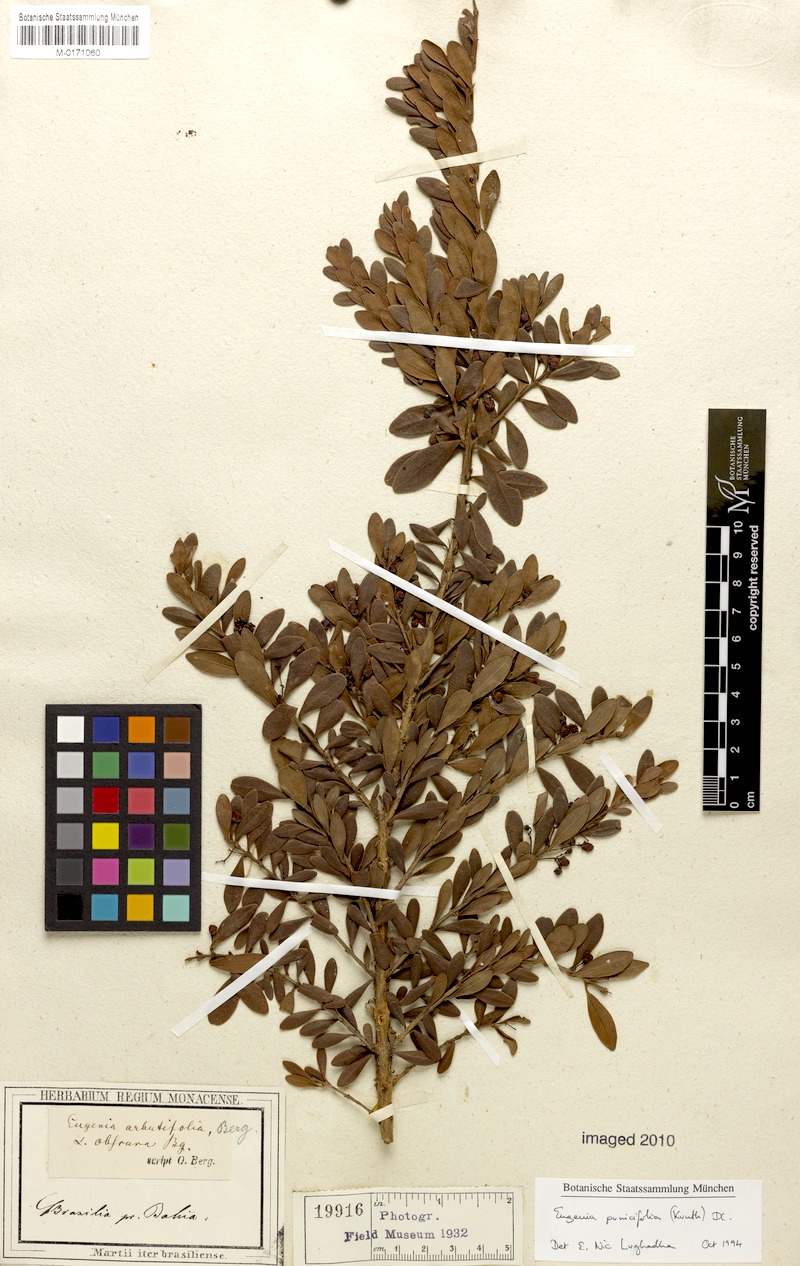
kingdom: Plantae
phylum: Tracheophyta
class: Magnoliopsida
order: Myrtales
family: Myrtaceae
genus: Eugenia
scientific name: Eugenia punicifolia
